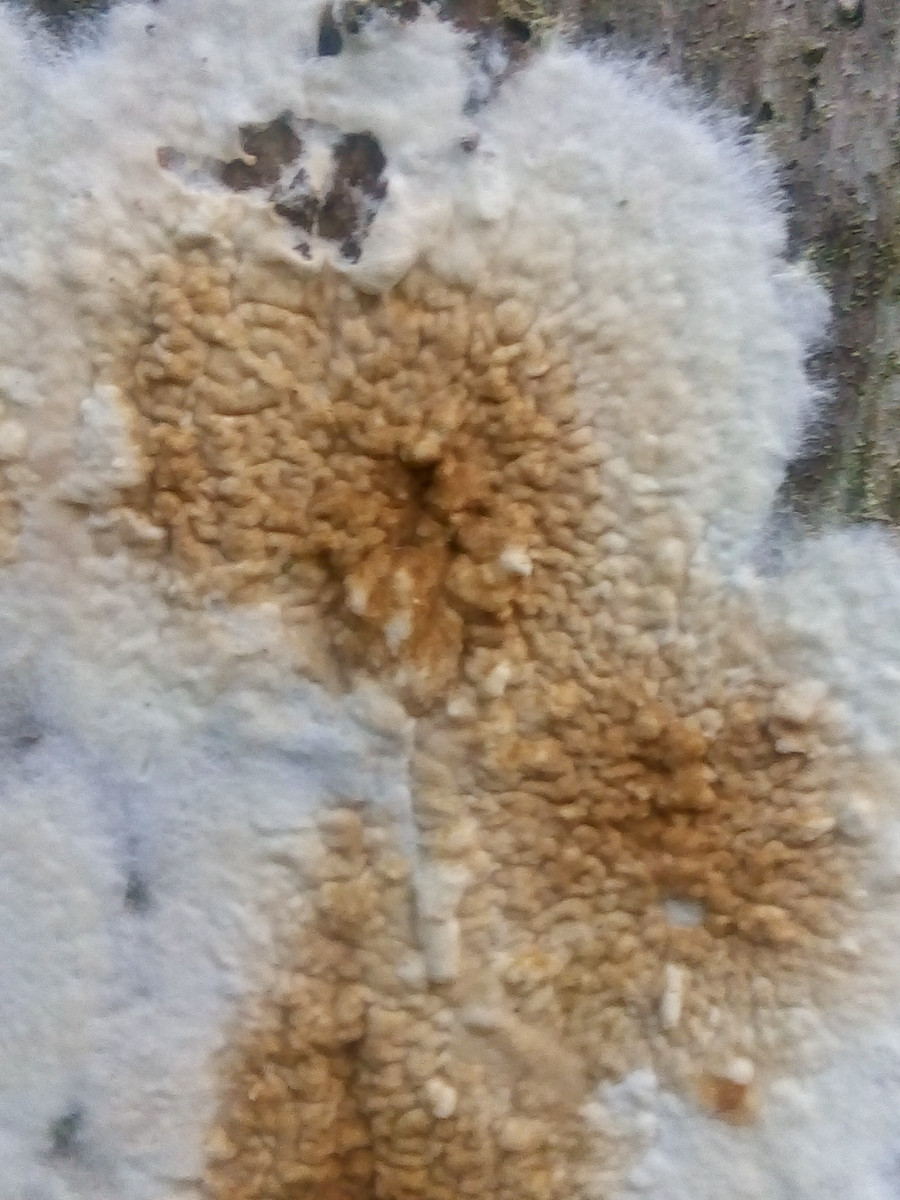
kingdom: Fungi
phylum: Basidiomycota
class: Agaricomycetes
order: Boletales
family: Coniophoraceae
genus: Coniophora
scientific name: Coniophora puteana
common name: gul tømmersvamp
